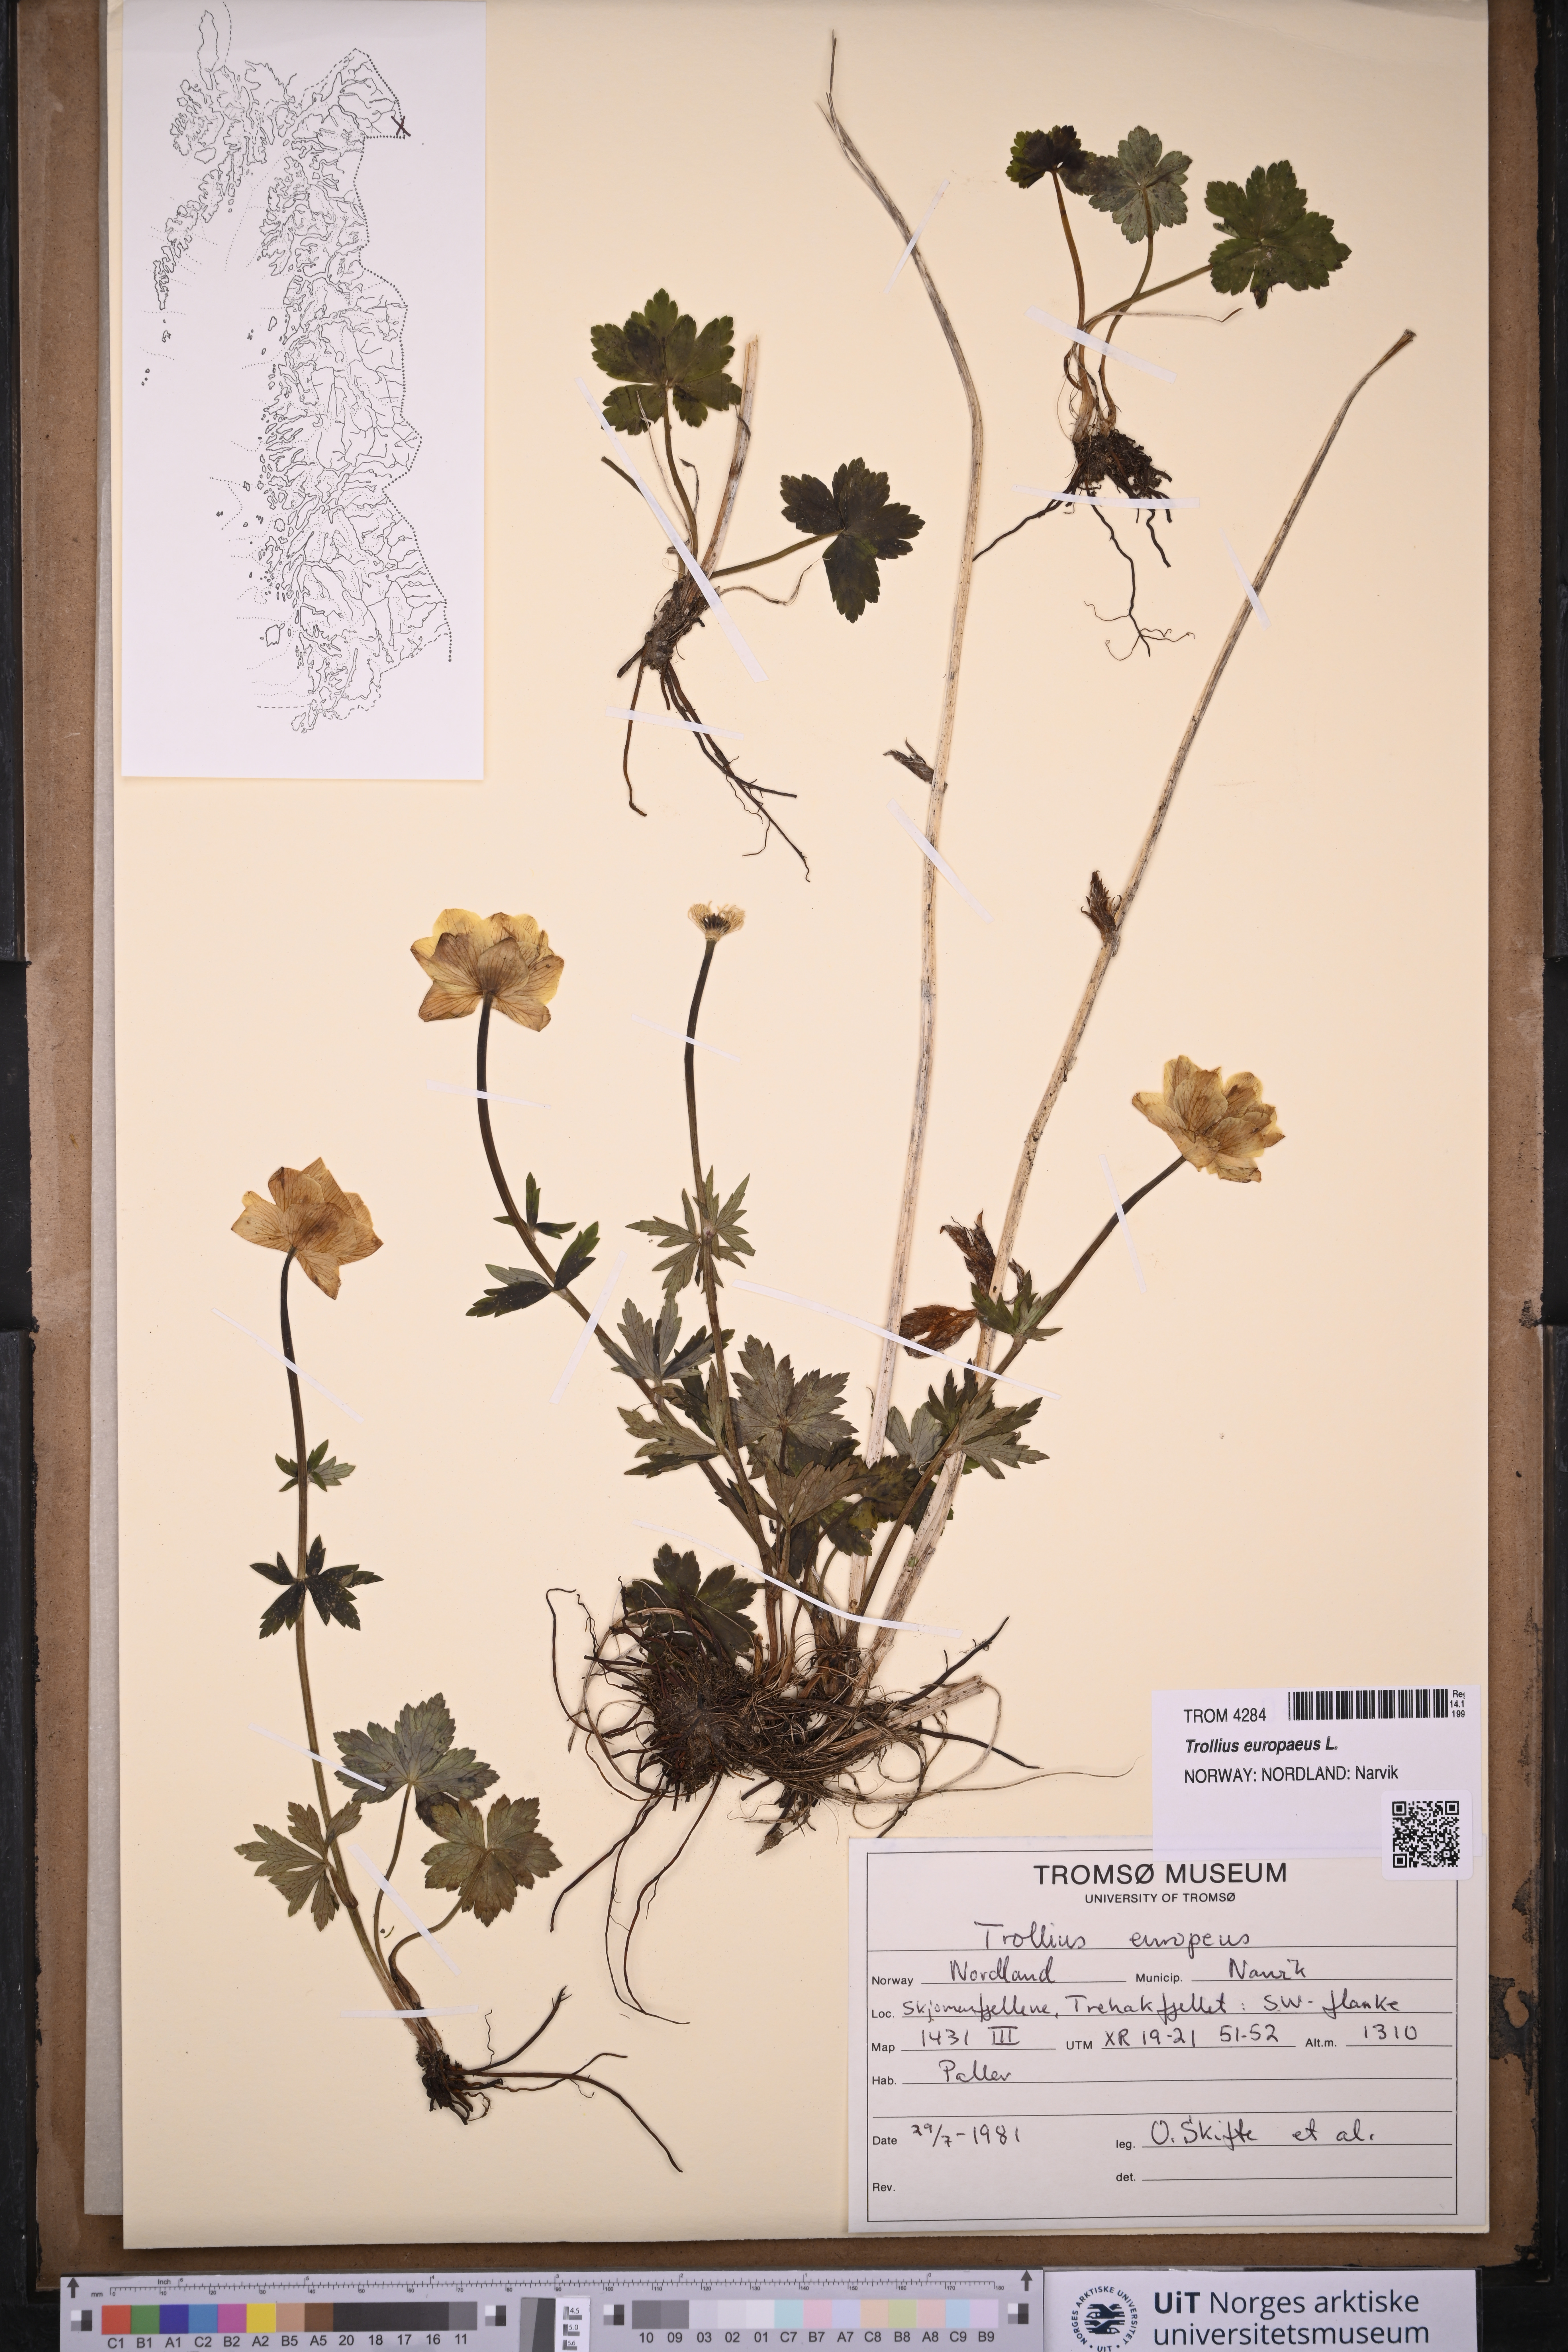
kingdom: Plantae
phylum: Tracheophyta
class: Magnoliopsida
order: Ranunculales
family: Ranunculaceae
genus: Trollius
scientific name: Trollius europaeus
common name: European globeflower
